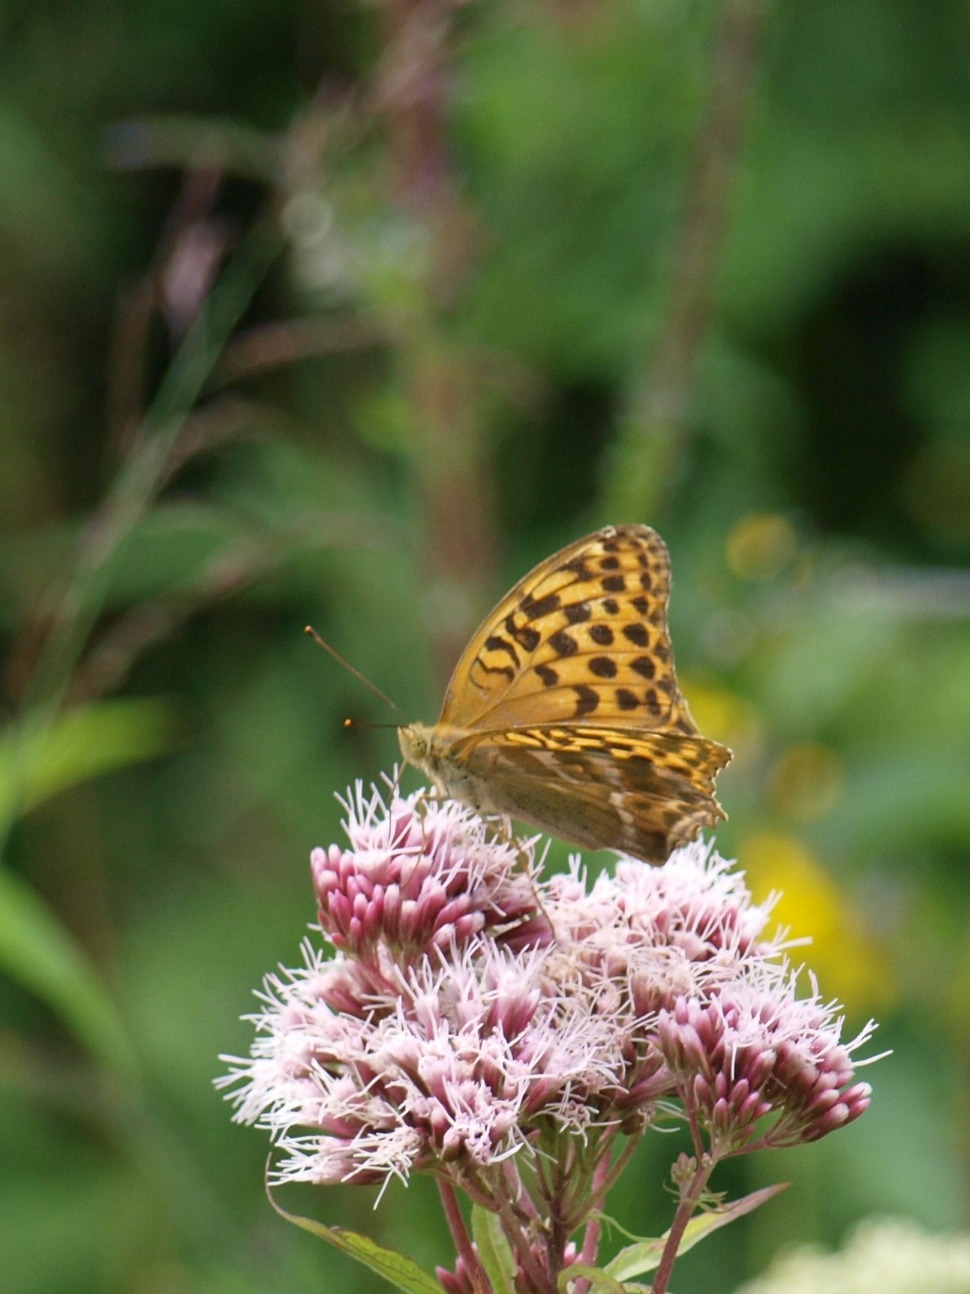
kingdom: Animalia
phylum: Arthropoda
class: Insecta
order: Lepidoptera
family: Nymphalidae
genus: Argynnis
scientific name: Argynnis paphia
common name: Kejserkåbe
